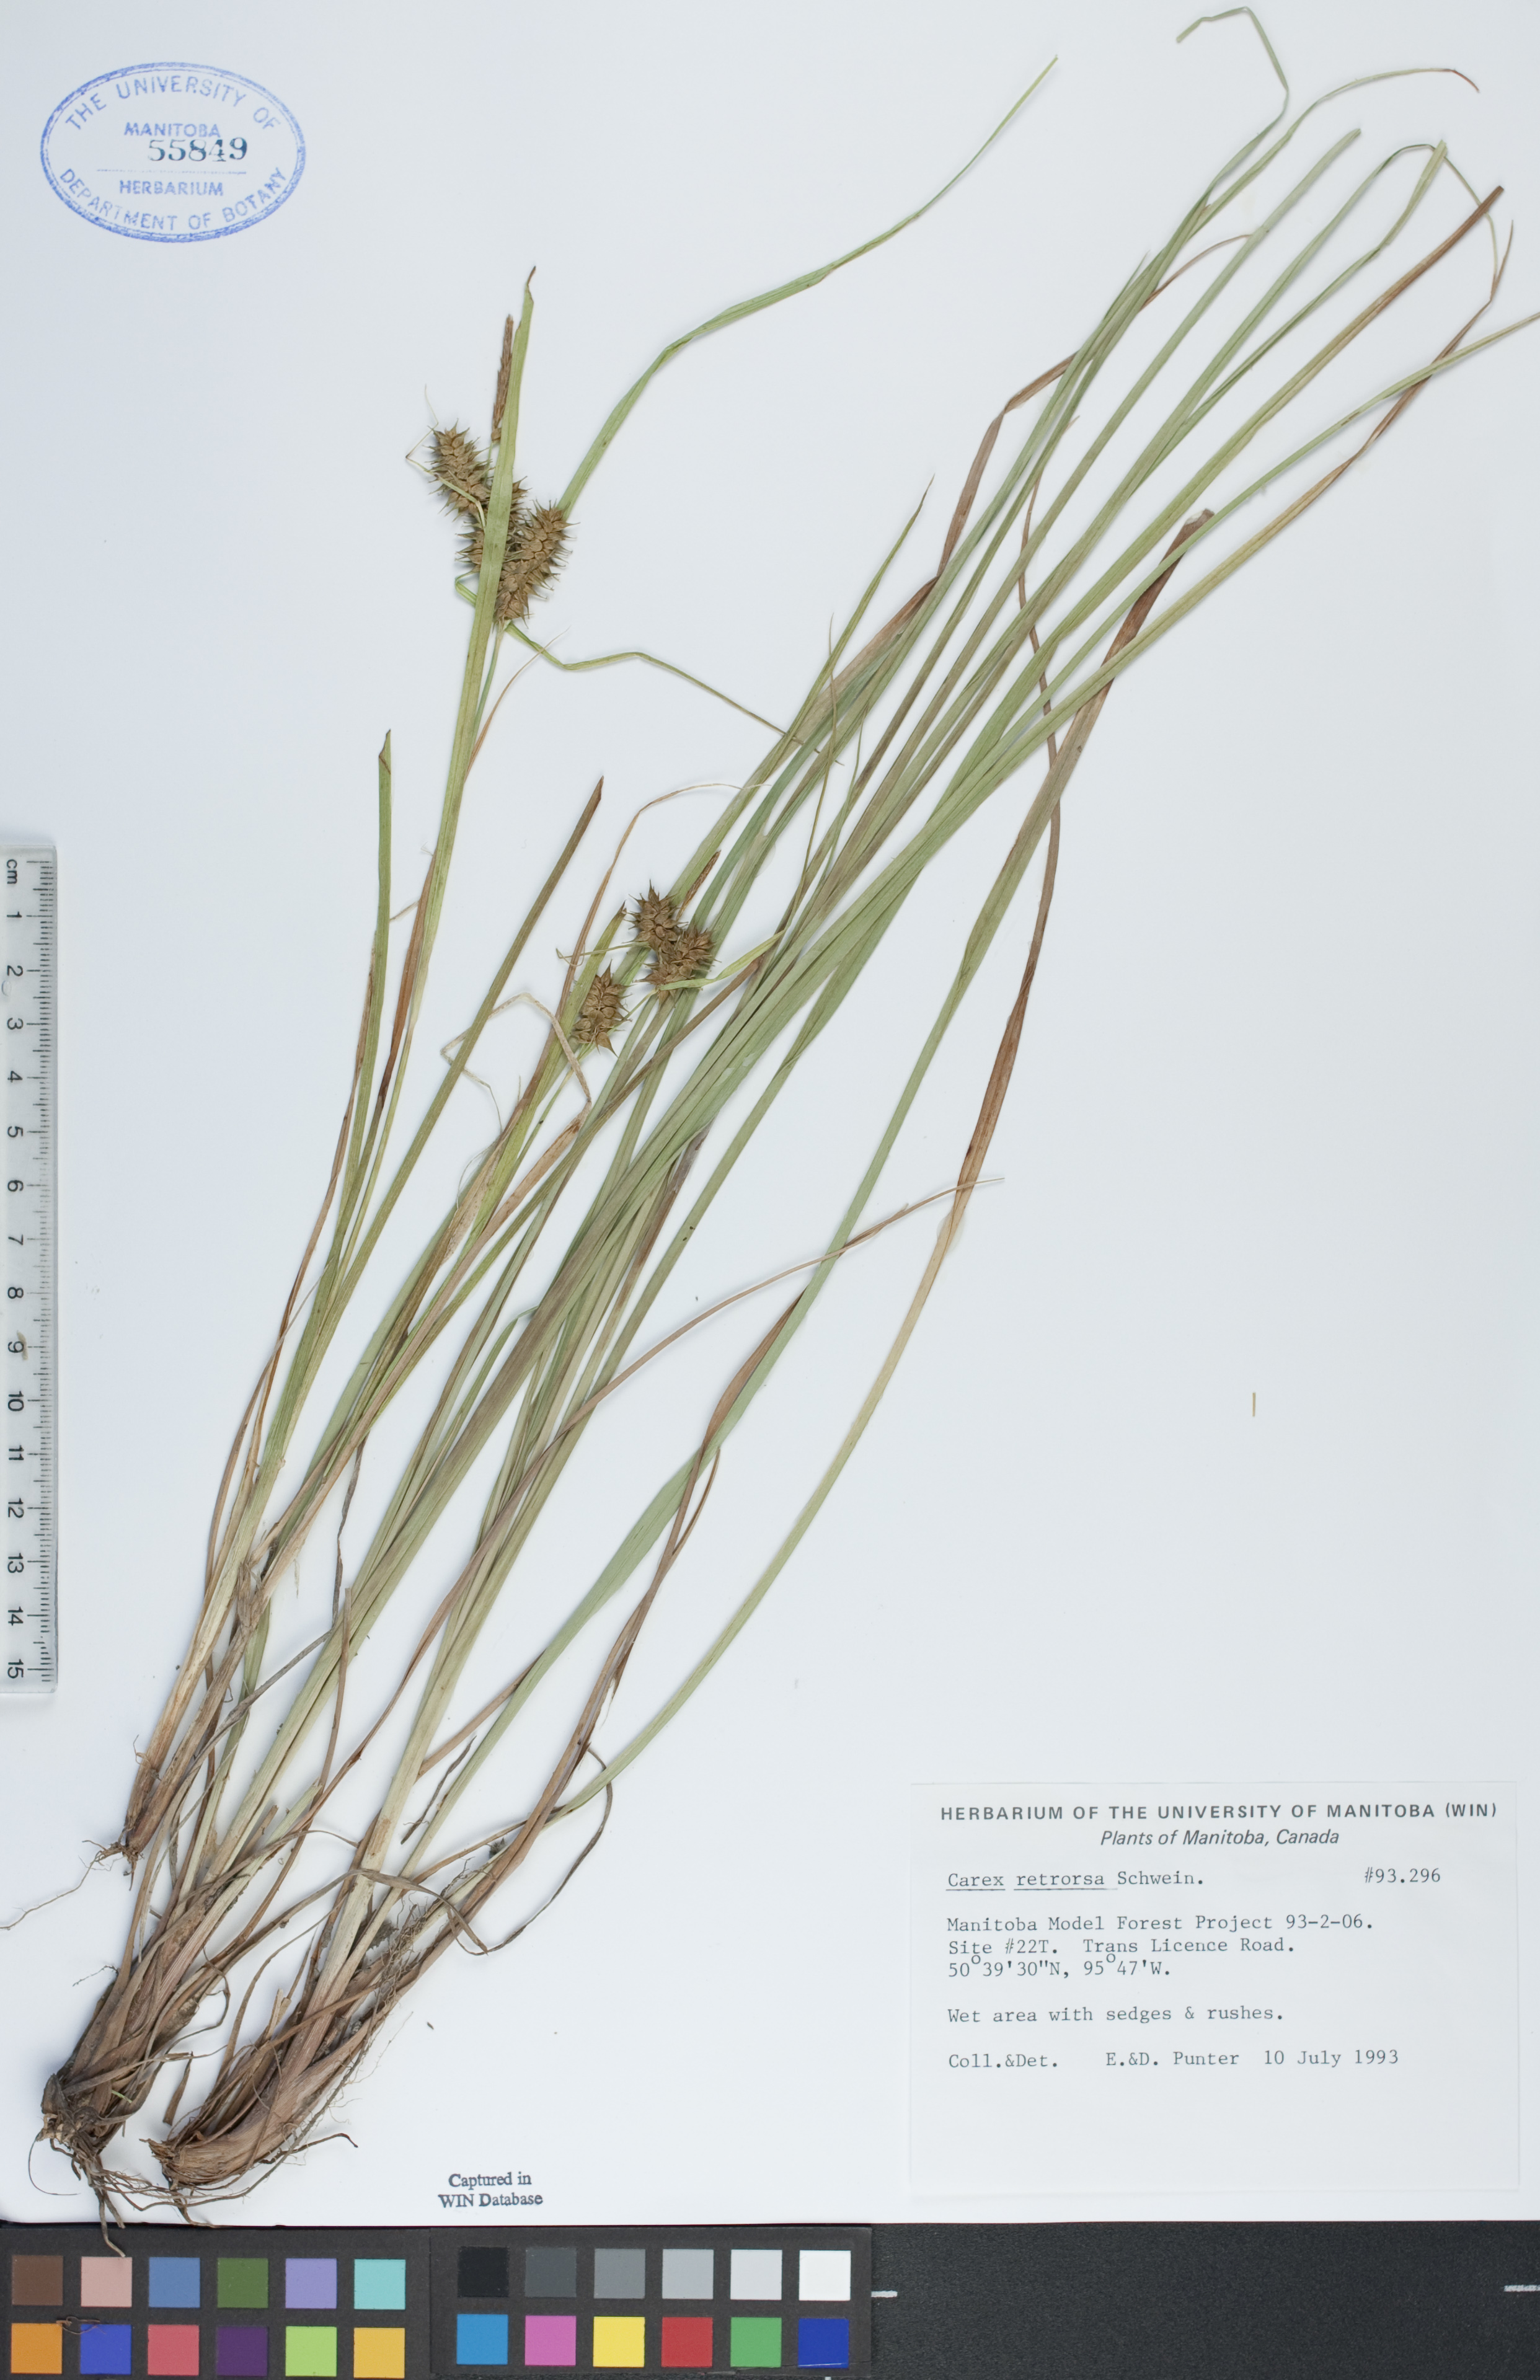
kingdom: Plantae
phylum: Tracheophyta
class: Liliopsida
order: Poales
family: Cyperaceae
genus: Carex
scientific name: Carex retrorsa
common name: Knot-sheath sedge
